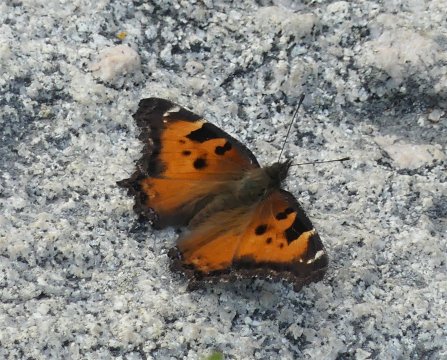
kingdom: Animalia
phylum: Arthropoda
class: Insecta
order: Lepidoptera
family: Nymphalidae
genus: Nymphalis
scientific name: Nymphalis californica
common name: California Tortoiseshell
